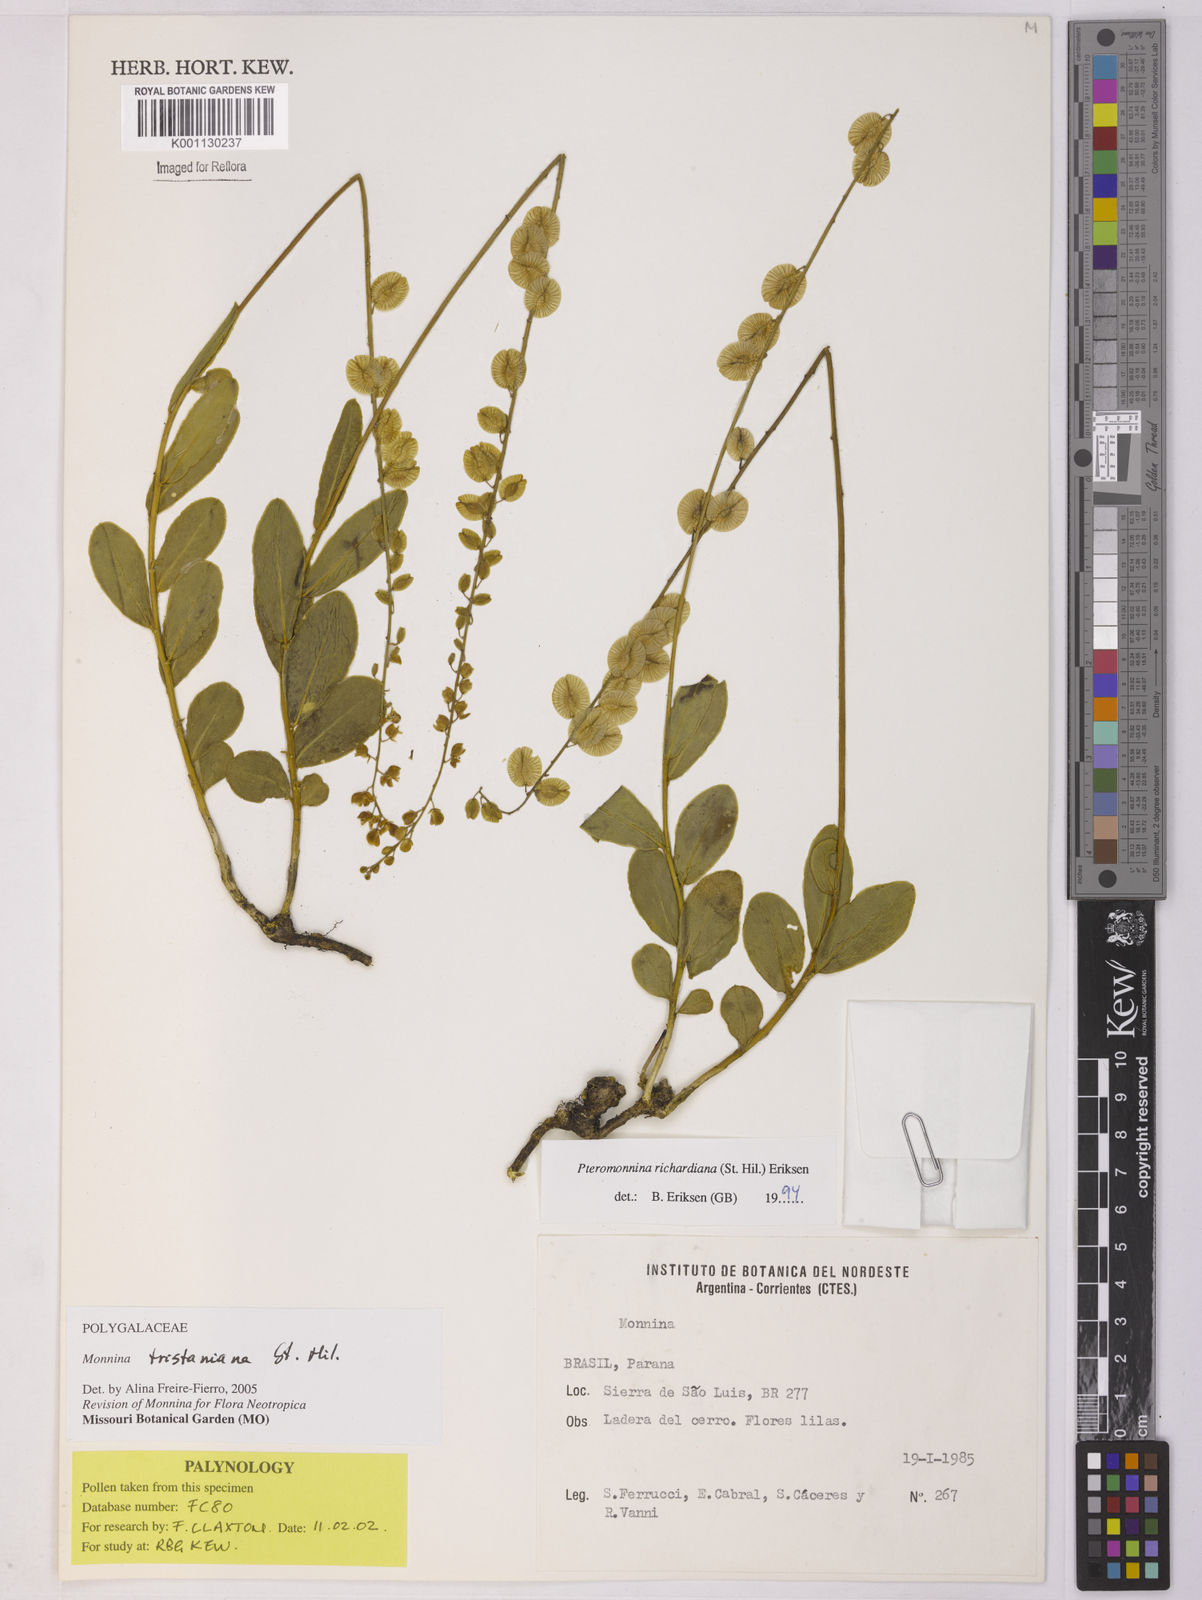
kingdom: Plantae
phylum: Tracheophyta
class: Magnoliopsida
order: Fabales
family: Polygalaceae
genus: Monnina
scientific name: Monnina tristaniana
